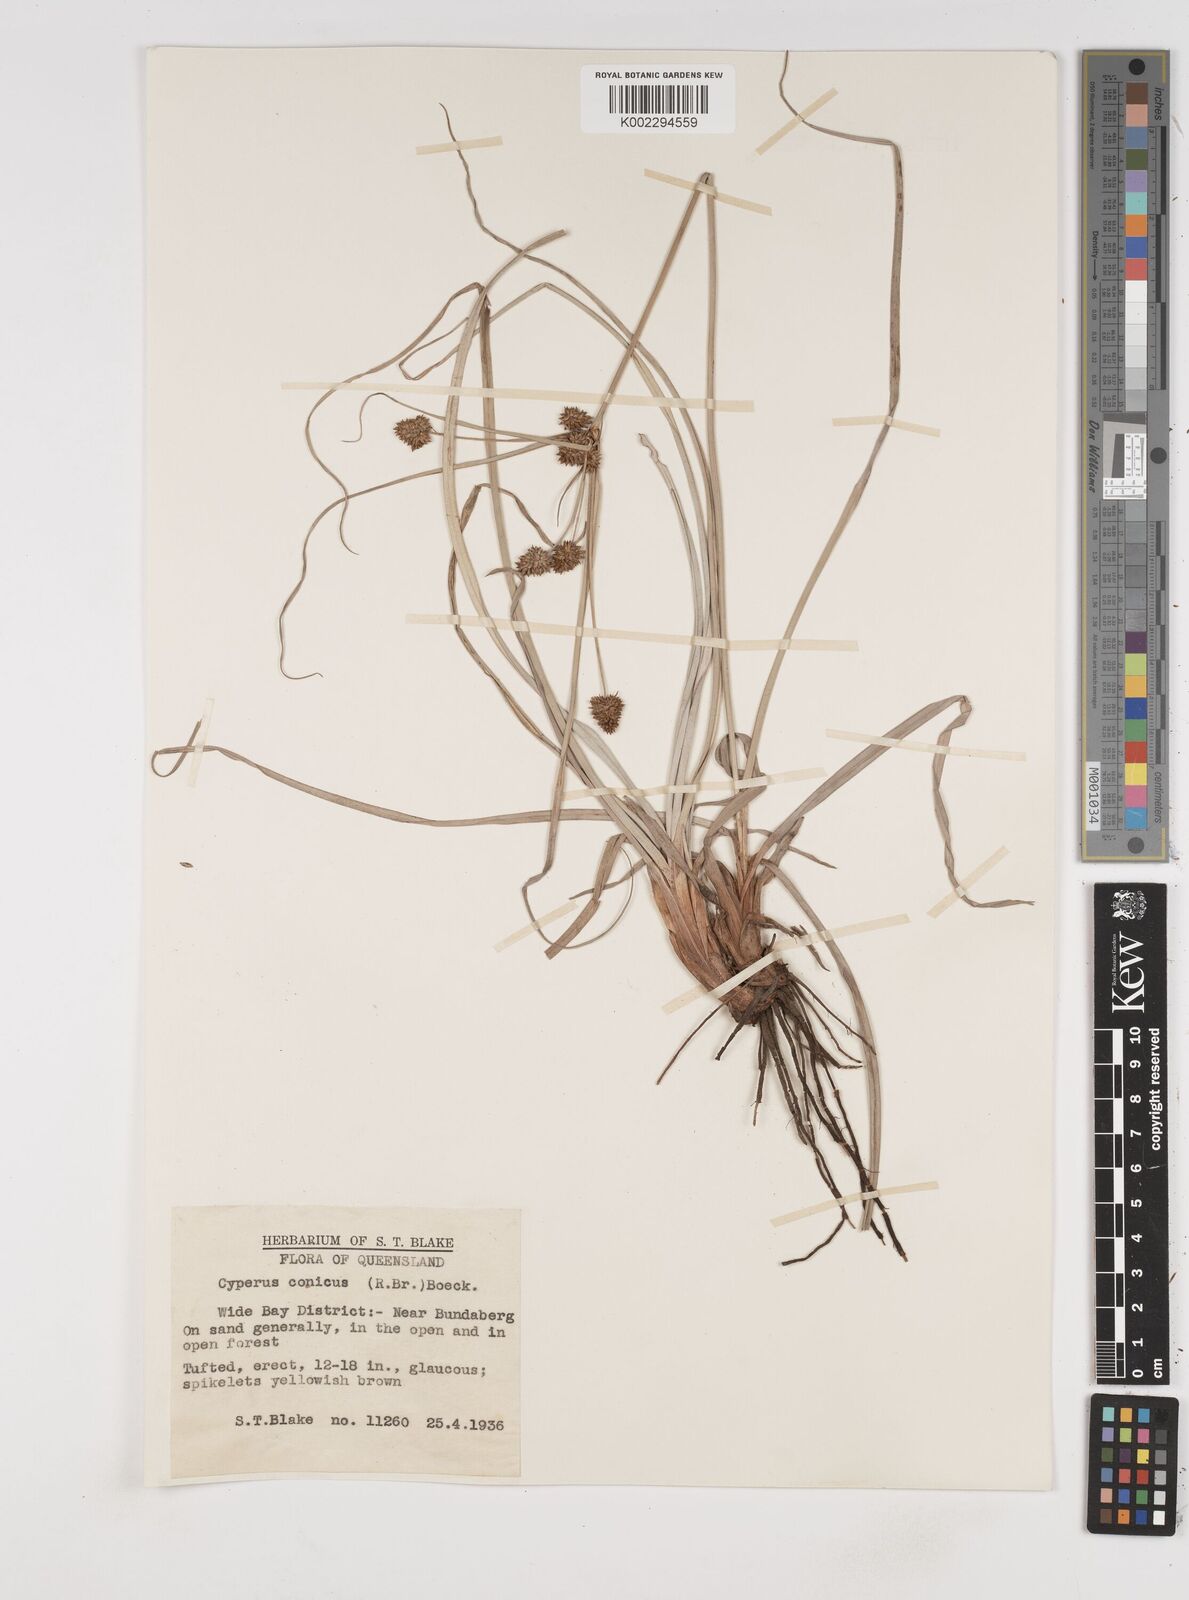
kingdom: Plantae
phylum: Tracheophyta
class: Liliopsida
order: Poales
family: Cyperaceae
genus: Cyperus
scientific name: Cyperus conicus
